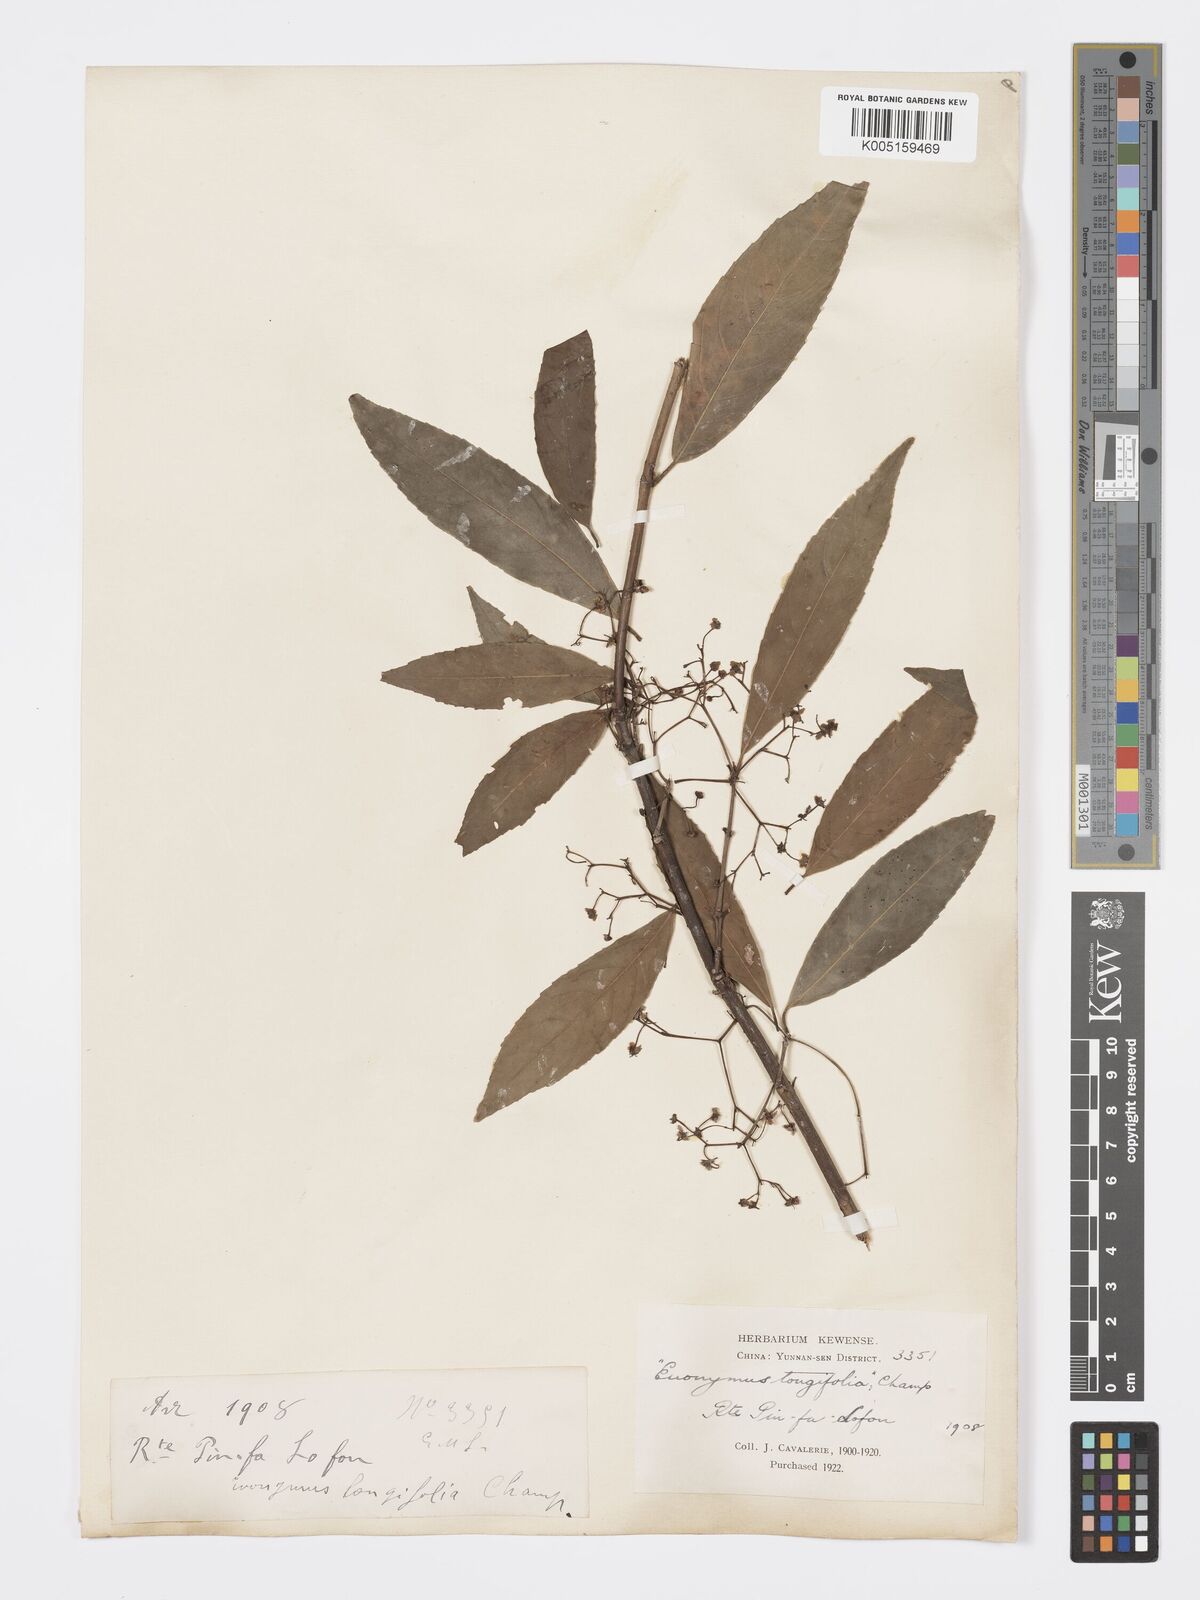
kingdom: Plantae
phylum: Tracheophyta
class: Magnoliopsida
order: Celastrales
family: Celastraceae
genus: Euonymus
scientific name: Euonymus tsoi
